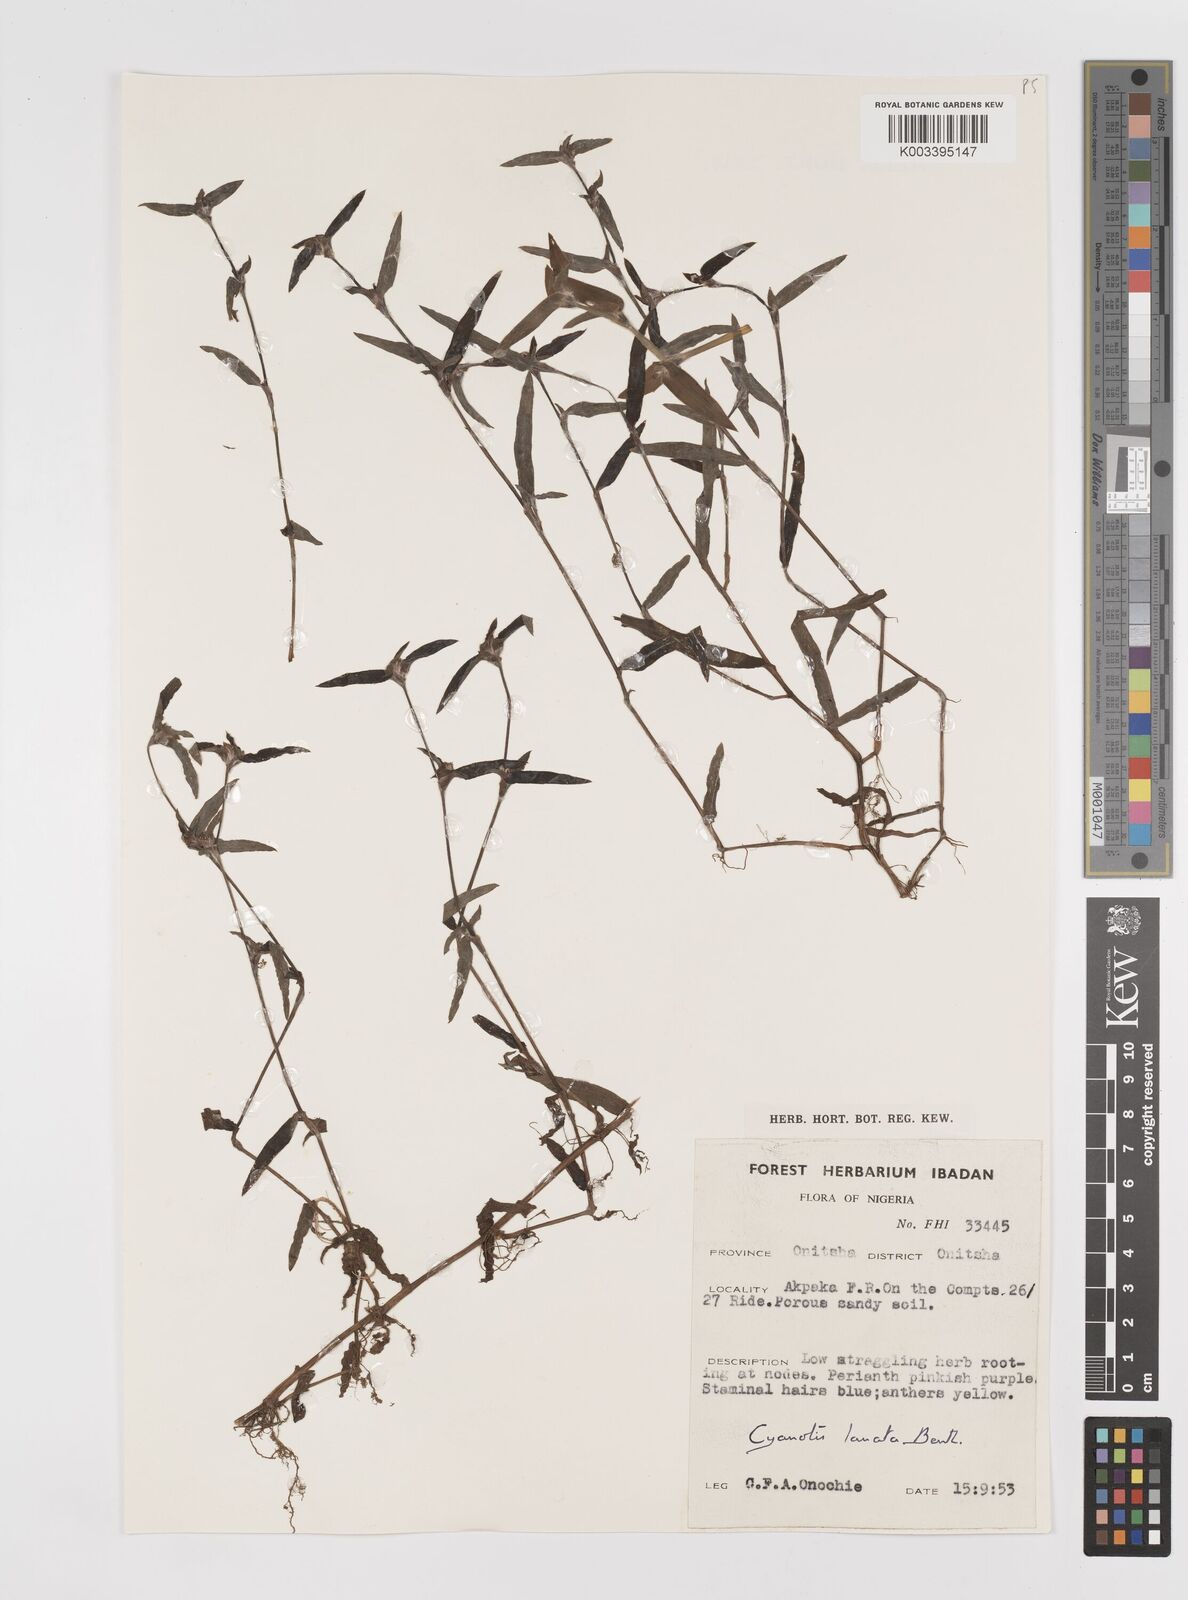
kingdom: Plantae
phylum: Tracheophyta
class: Liliopsida
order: Commelinales
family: Commelinaceae
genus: Cyanotis
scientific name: Cyanotis lanata
